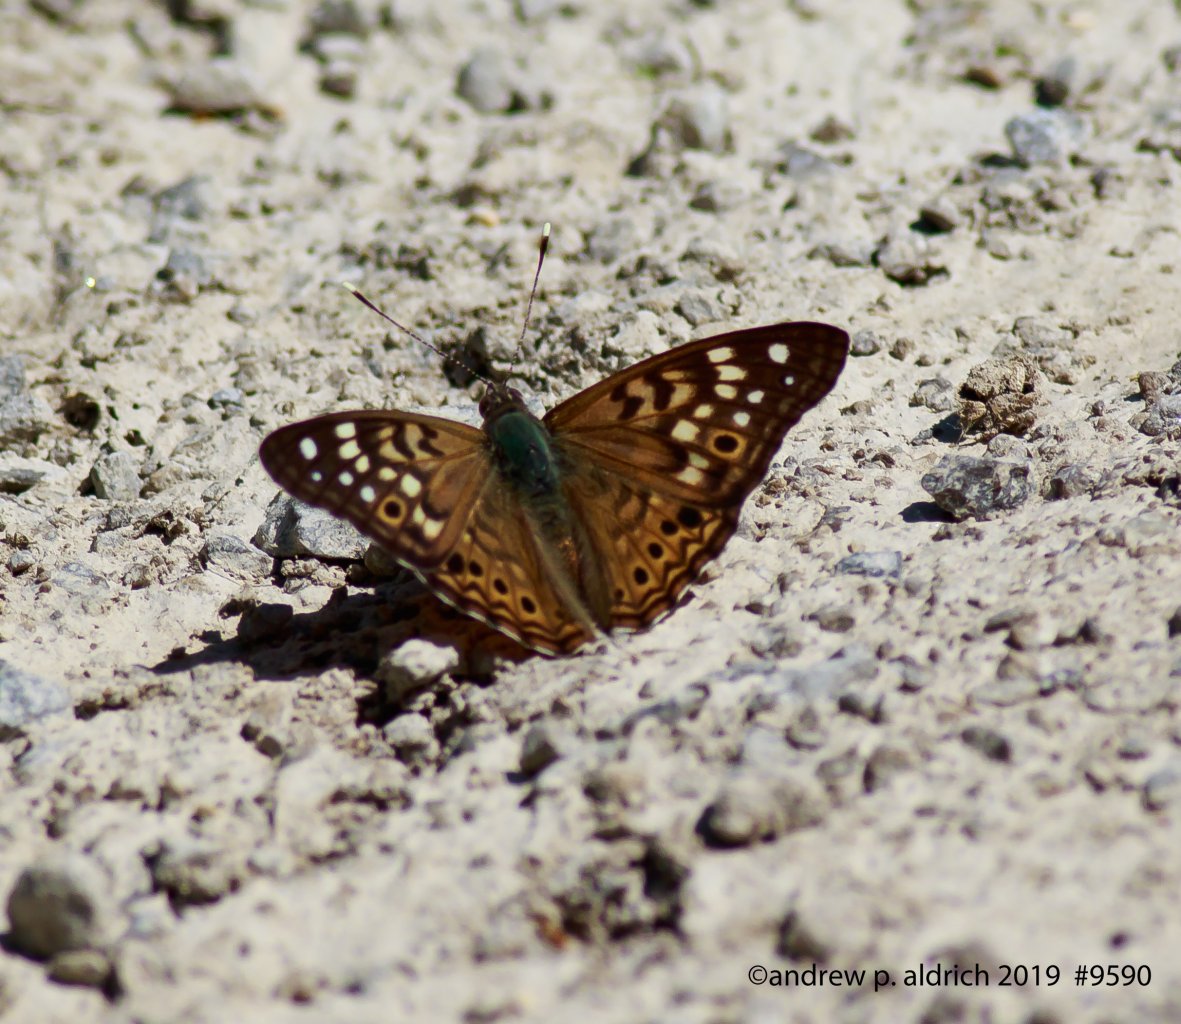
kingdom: Animalia
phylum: Arthropoda
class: Insecta
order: Lepidoptera
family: Nymphalidae
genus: Asterocampa
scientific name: Asterocampa celtis
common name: Hackberry Emperor
